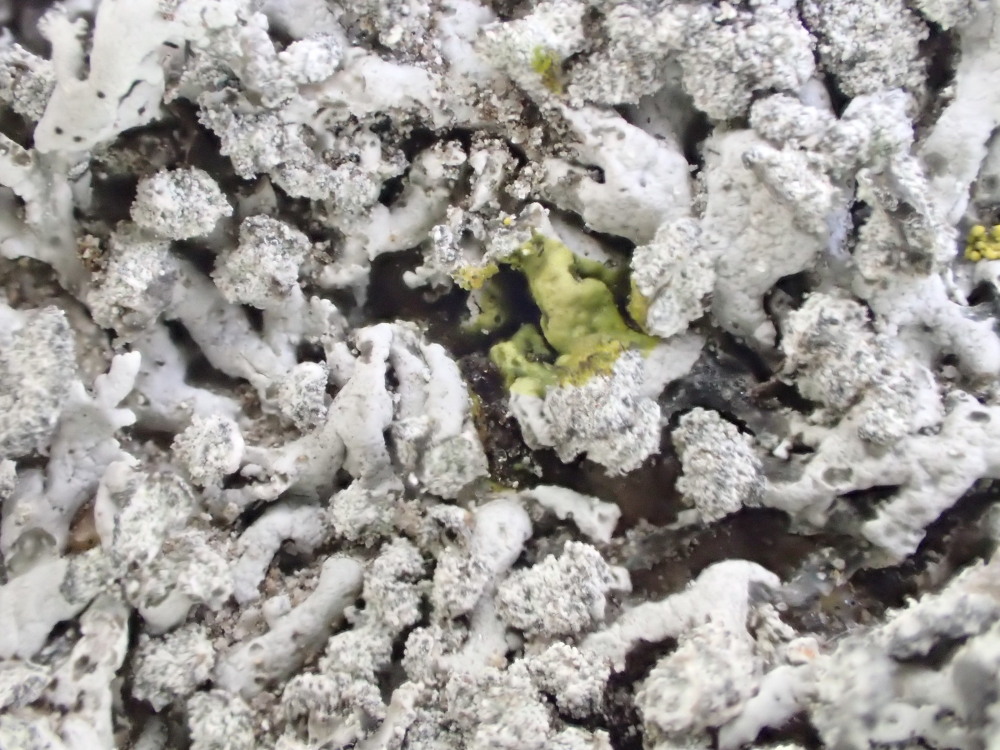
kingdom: Fungi
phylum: Ascomycota
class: Lecanoromycetes
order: Caliciales
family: Physciaceae
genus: Physcia
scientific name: Physcia dubia
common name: fuglestens-rosetlav
